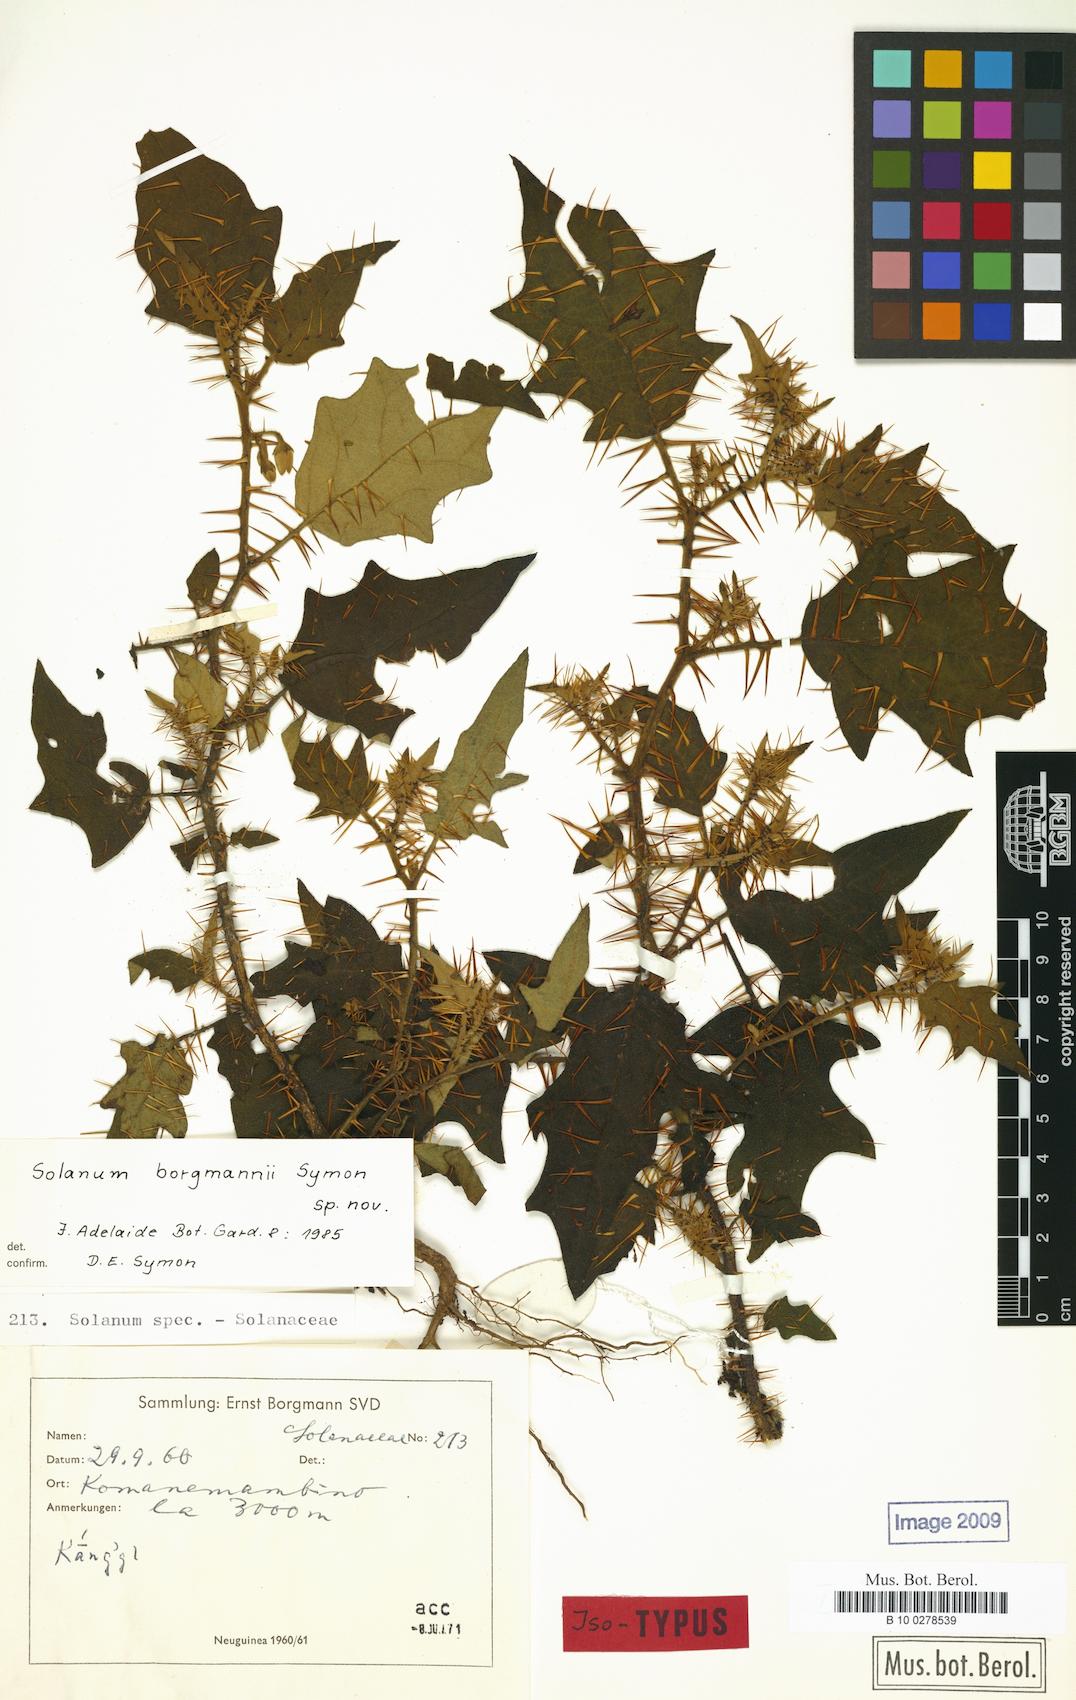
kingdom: Plantae
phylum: Tracheophyta
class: Magnoliopsida
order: Solanales
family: Solanaceae
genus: Solanum
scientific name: Solanum borgmannii
